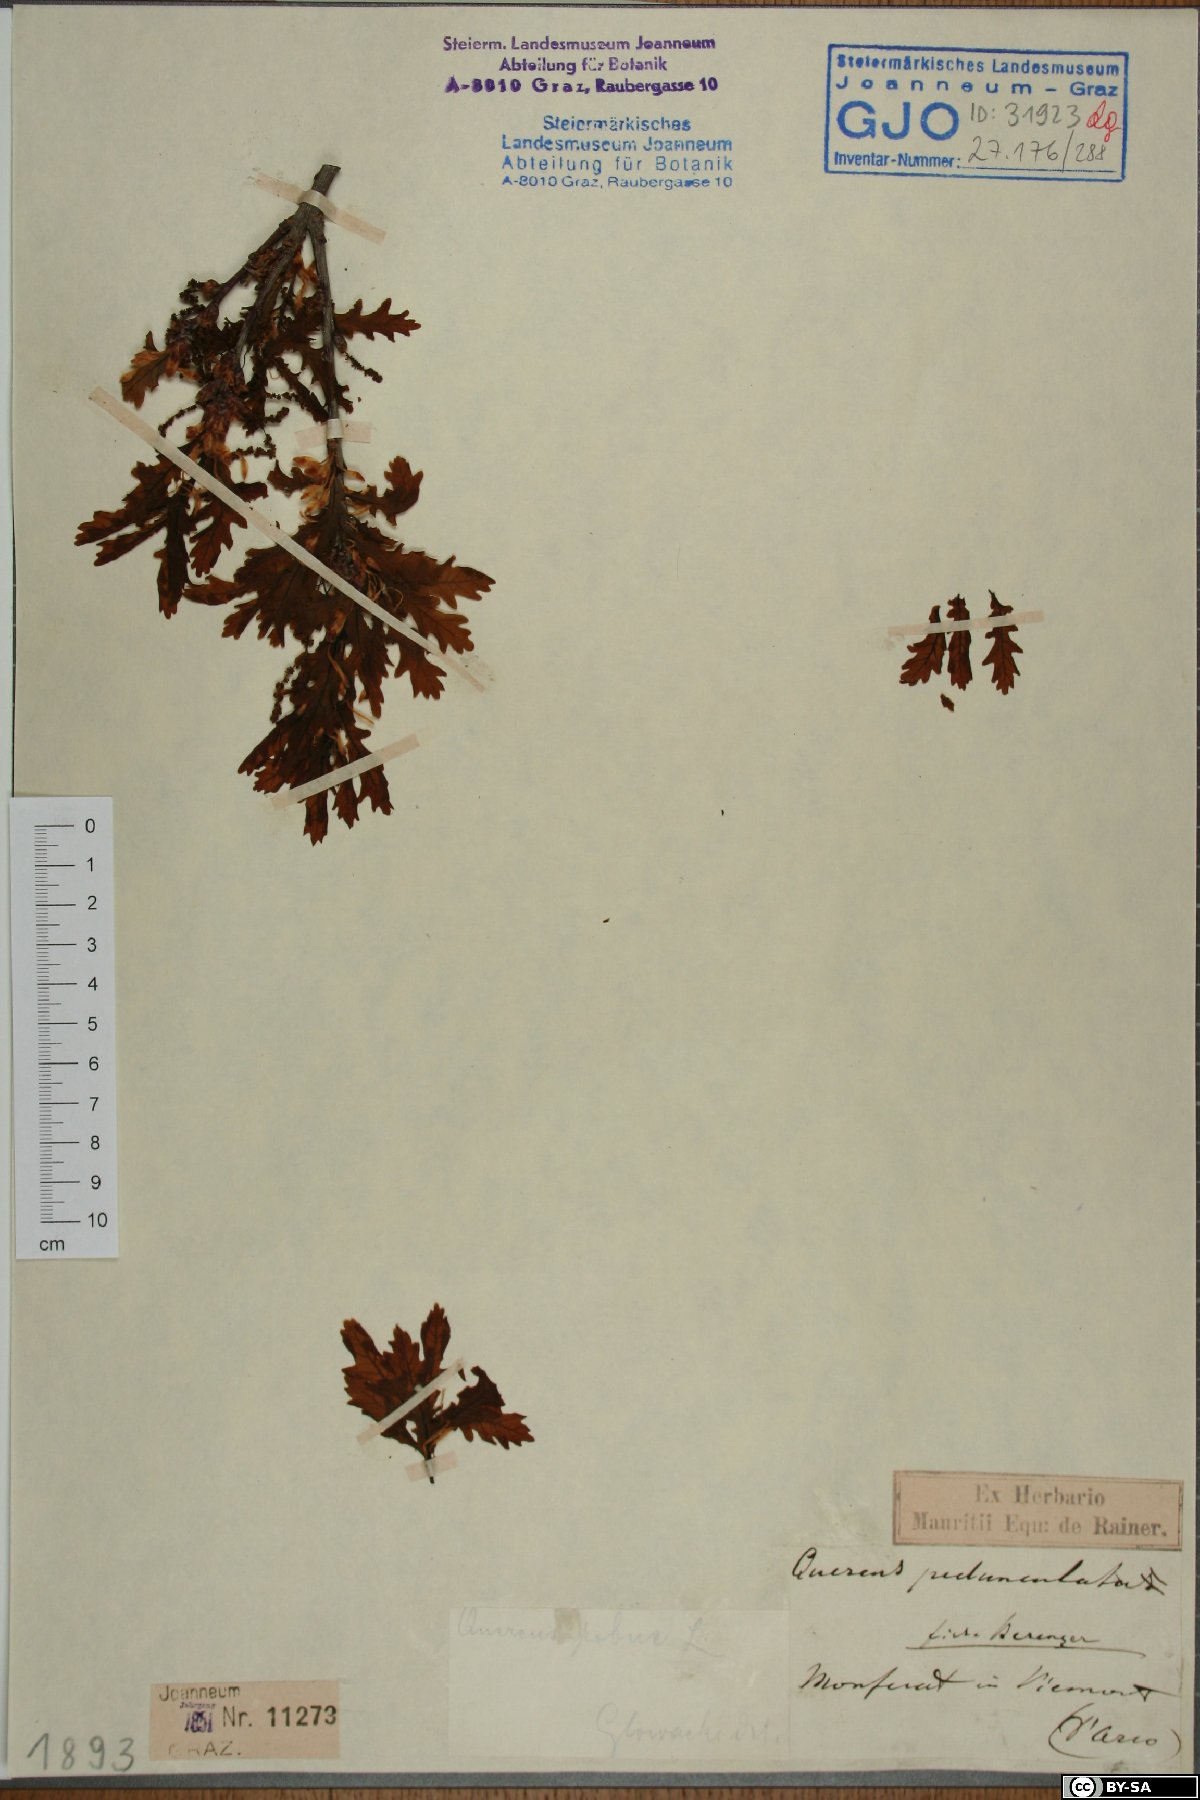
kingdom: Plantae
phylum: Tracheophyta
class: Magnoliopsida
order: Fagales
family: Fagaceae
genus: Quercus
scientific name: Quercus robur
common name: Pedunculate oak
